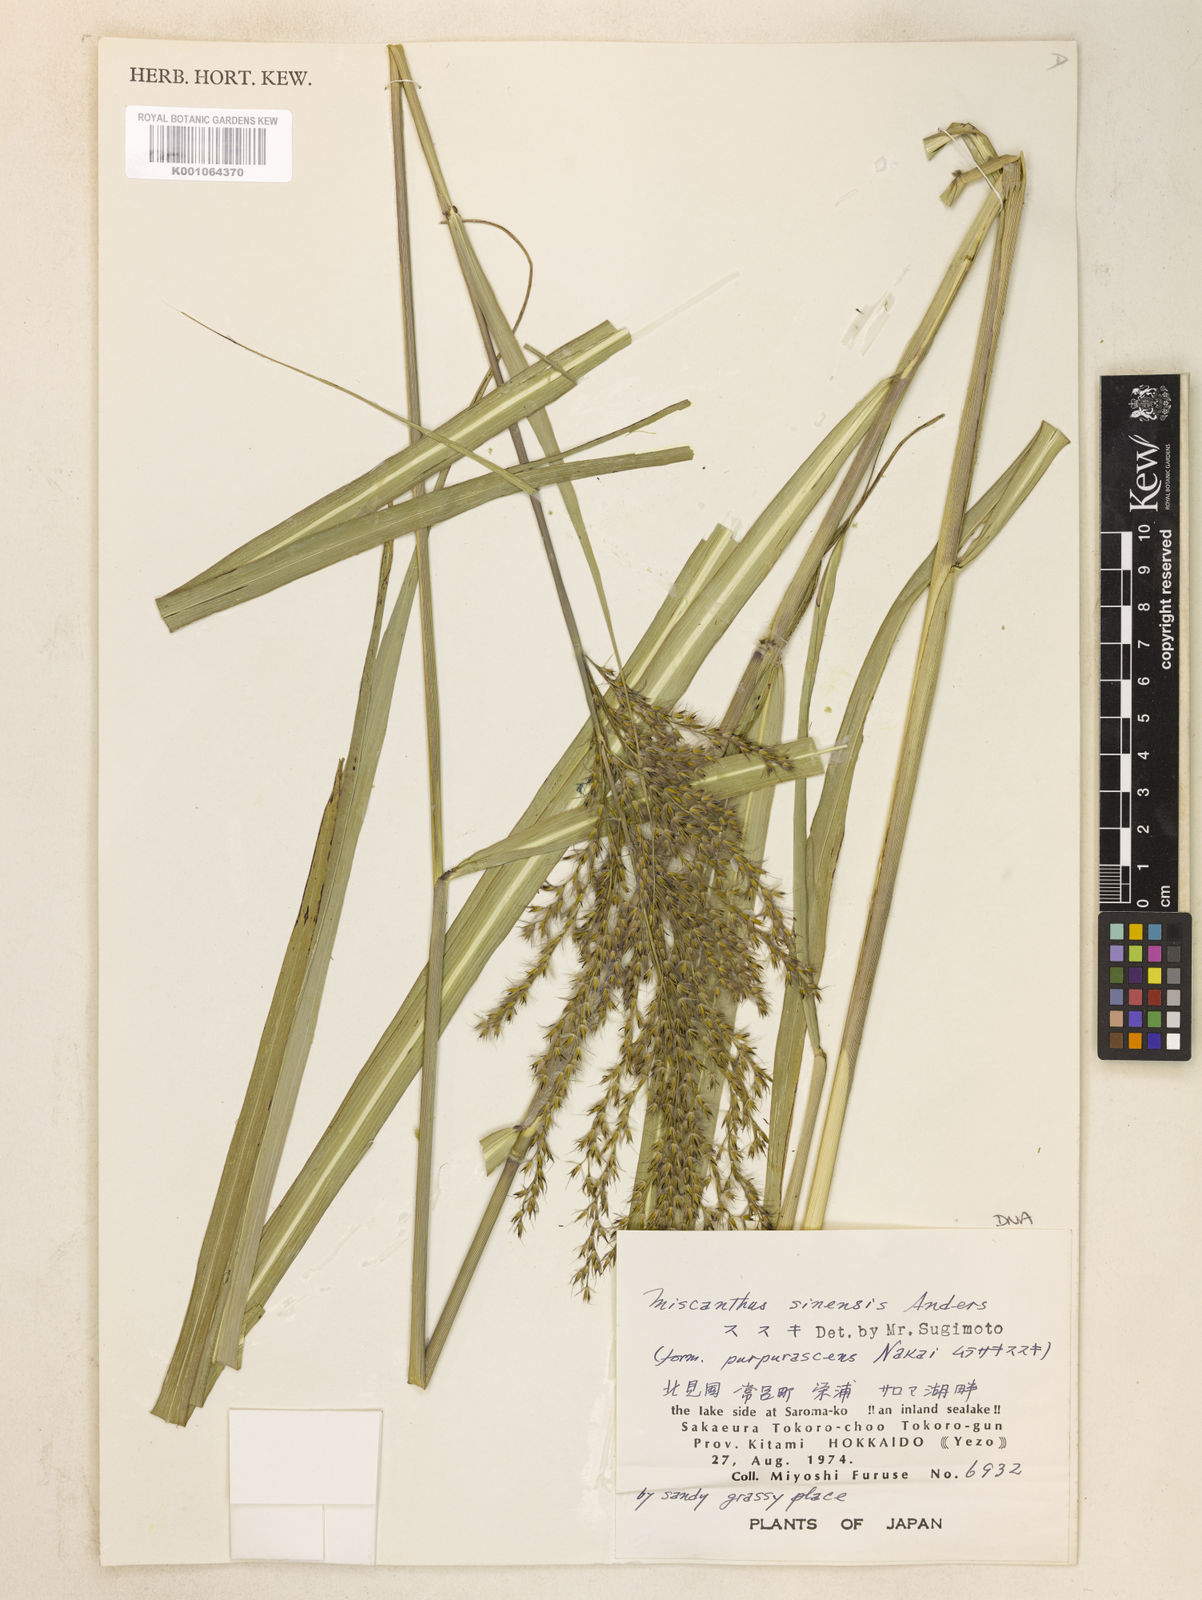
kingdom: Plantae
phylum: Tracheophyta
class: Liliopsida
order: Poales
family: Poaceae
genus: Miscanthus
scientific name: Miscanthus sinensis
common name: Chinese silvergrass
